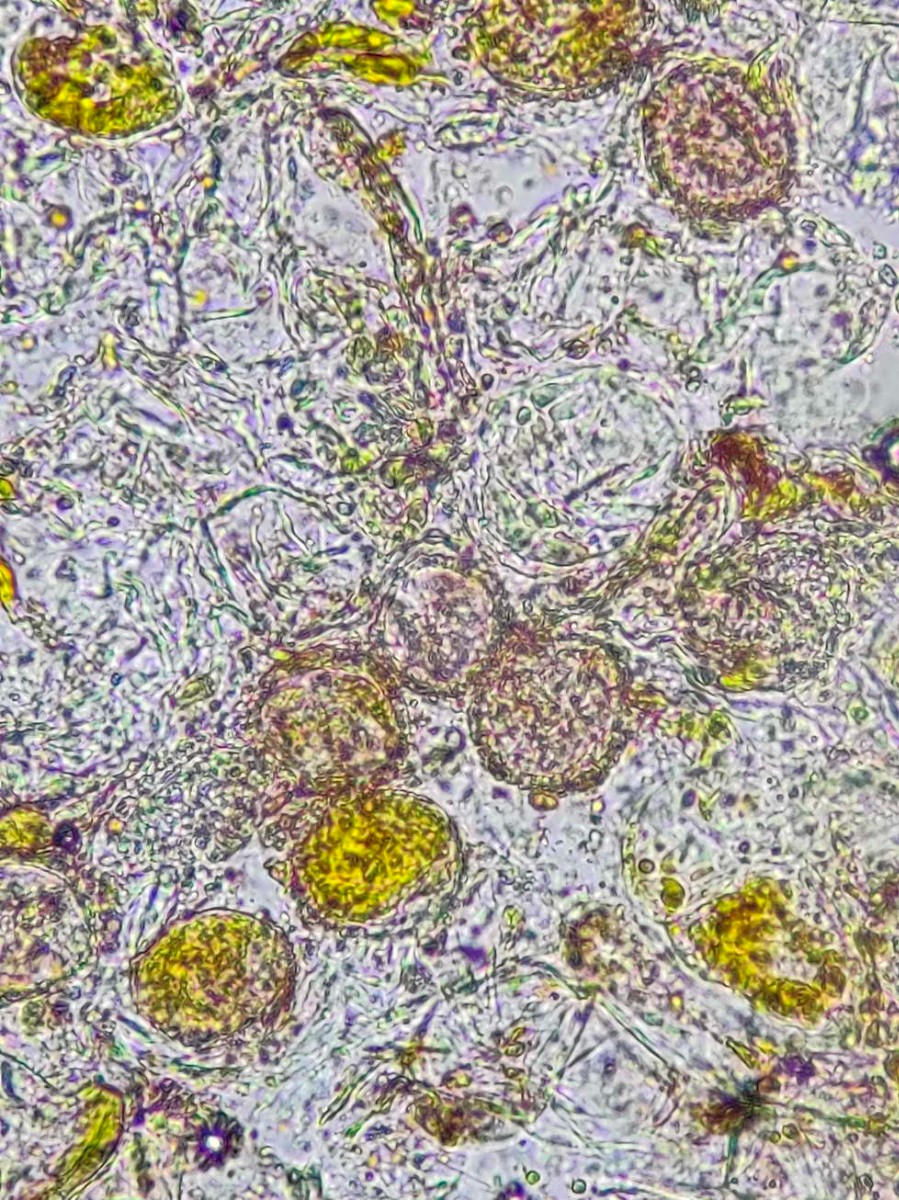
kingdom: Fungi
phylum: Basidiomycota
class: Pucciniomycetes
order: Pucciniales
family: Coleosporiaceae
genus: Coleosporium
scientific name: Coleosporium tussilaginis
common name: almindelig fyrrenålerust
